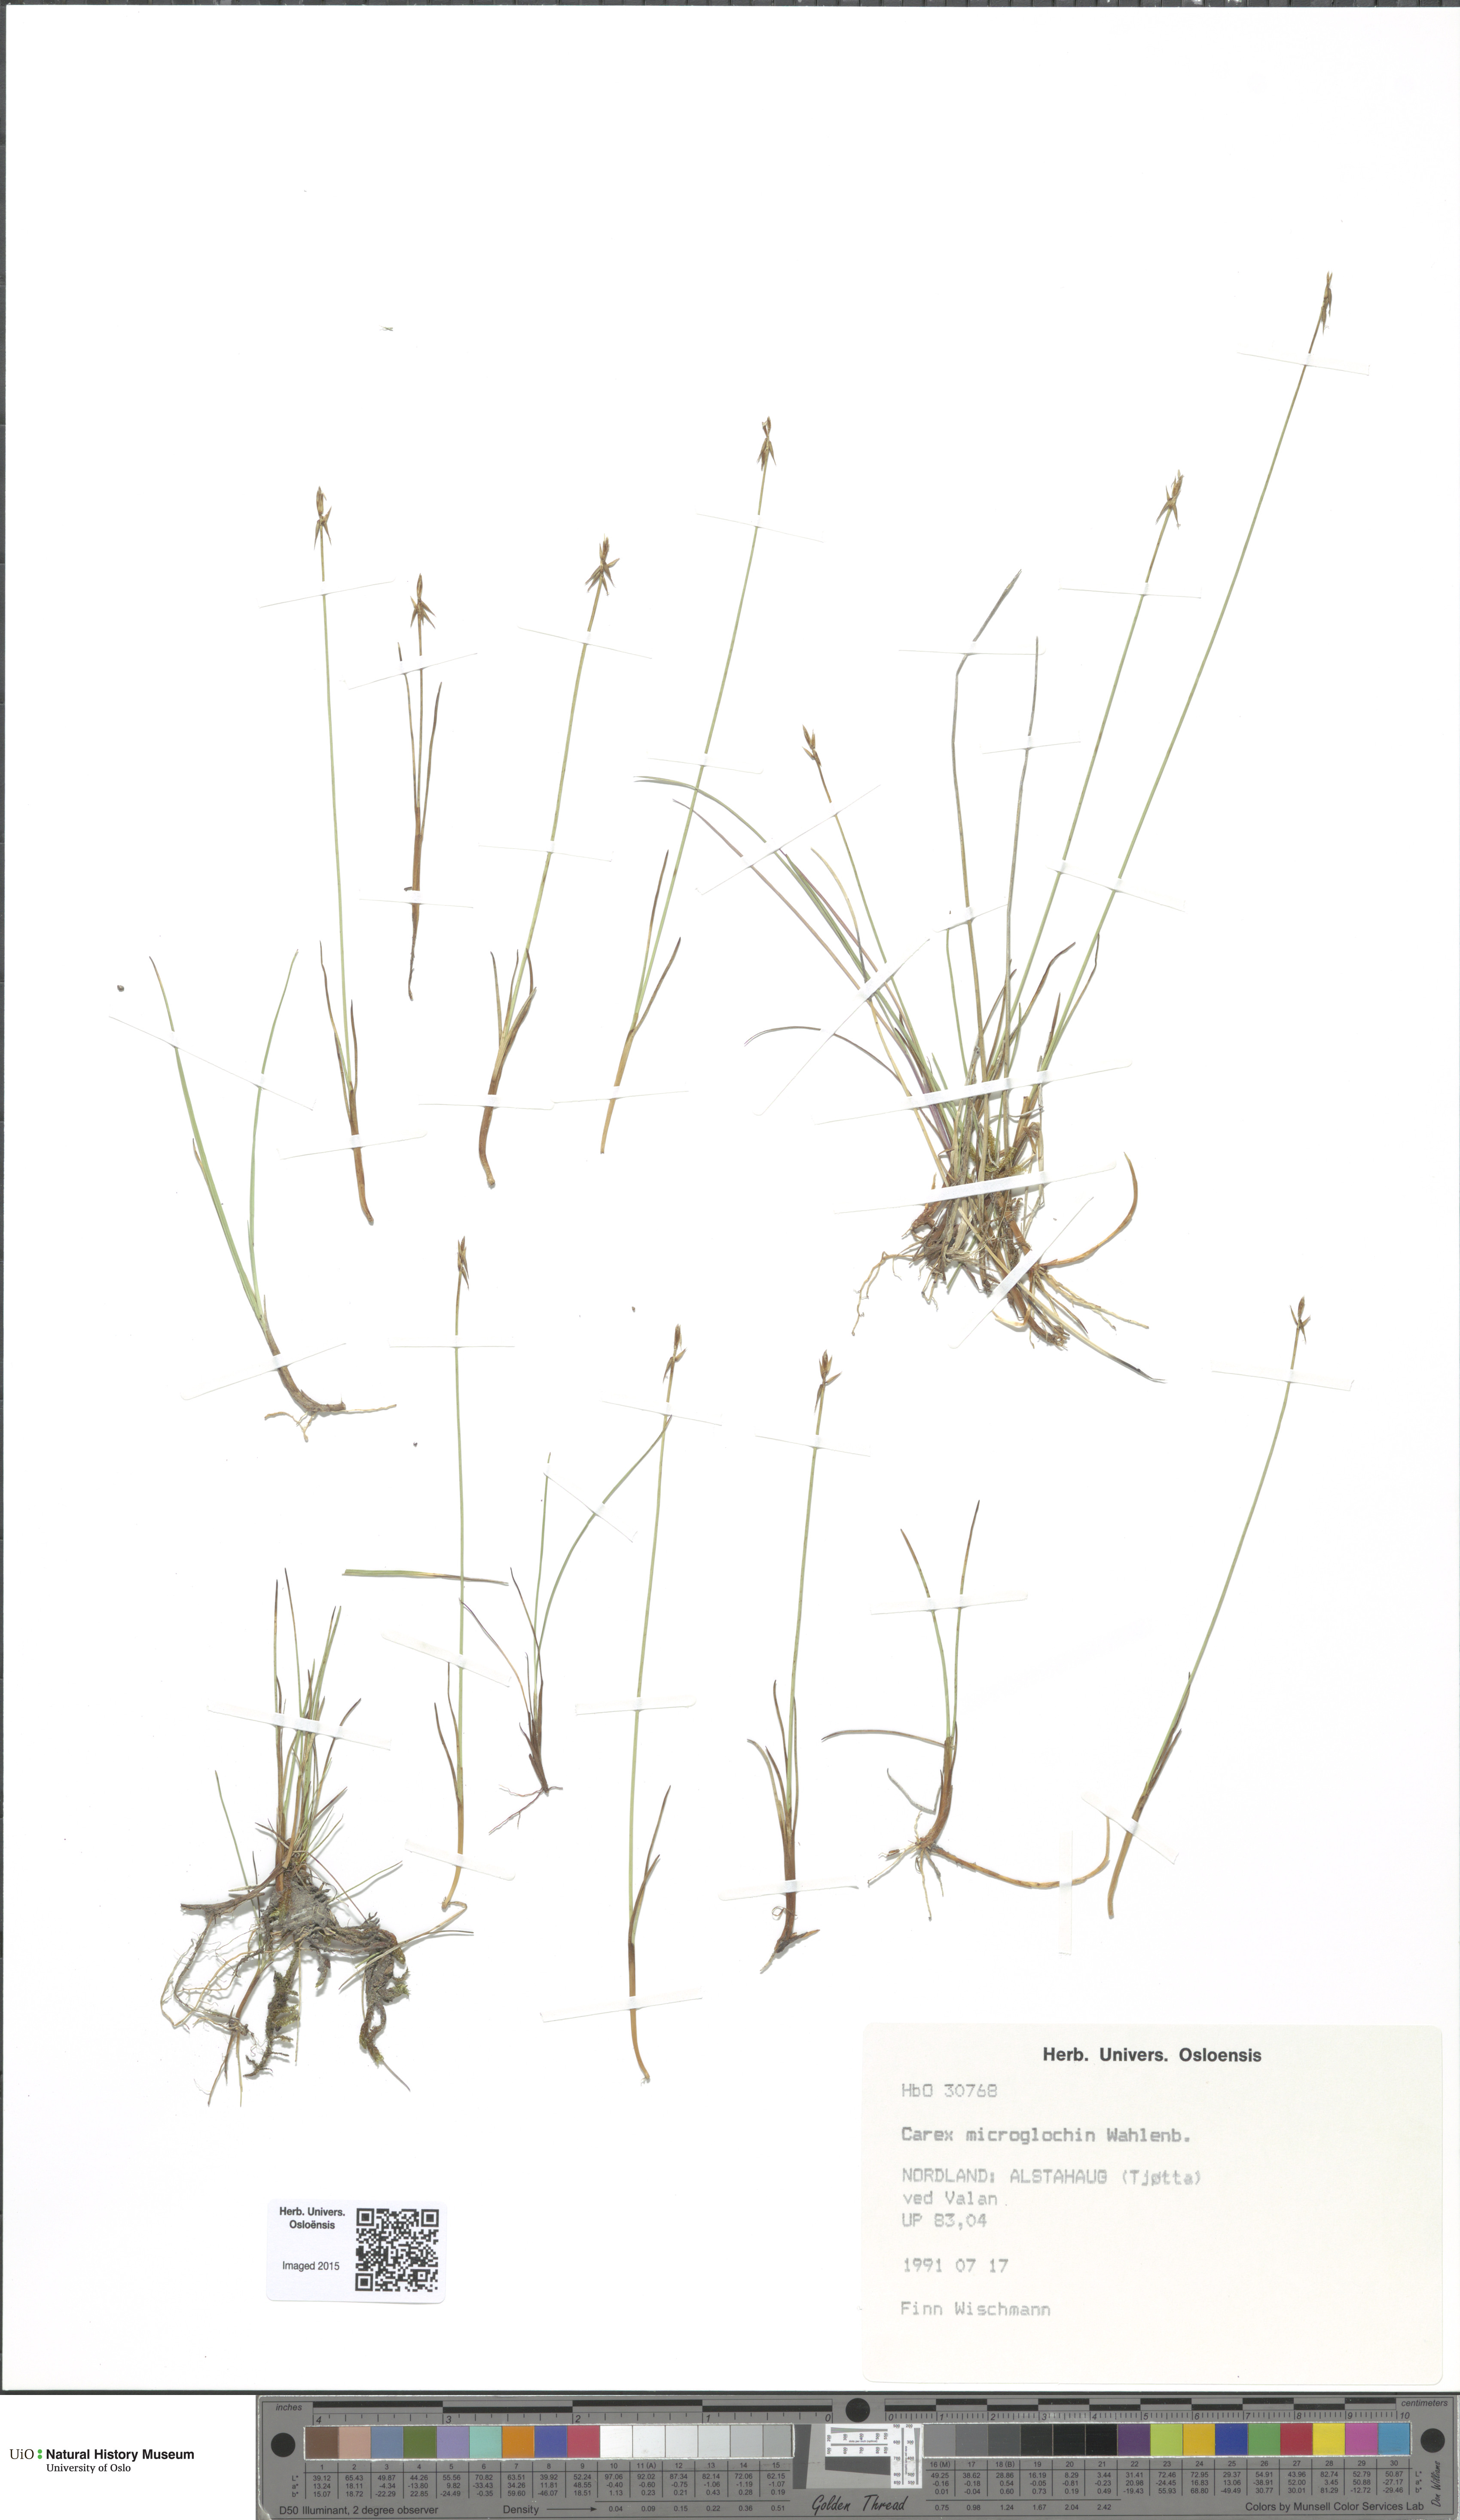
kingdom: Plantae
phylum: Tracheophyta
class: Liliopsida
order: Poales
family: Cyperaceae
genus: Carex
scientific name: Carex microglochin
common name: Bristle sedge
